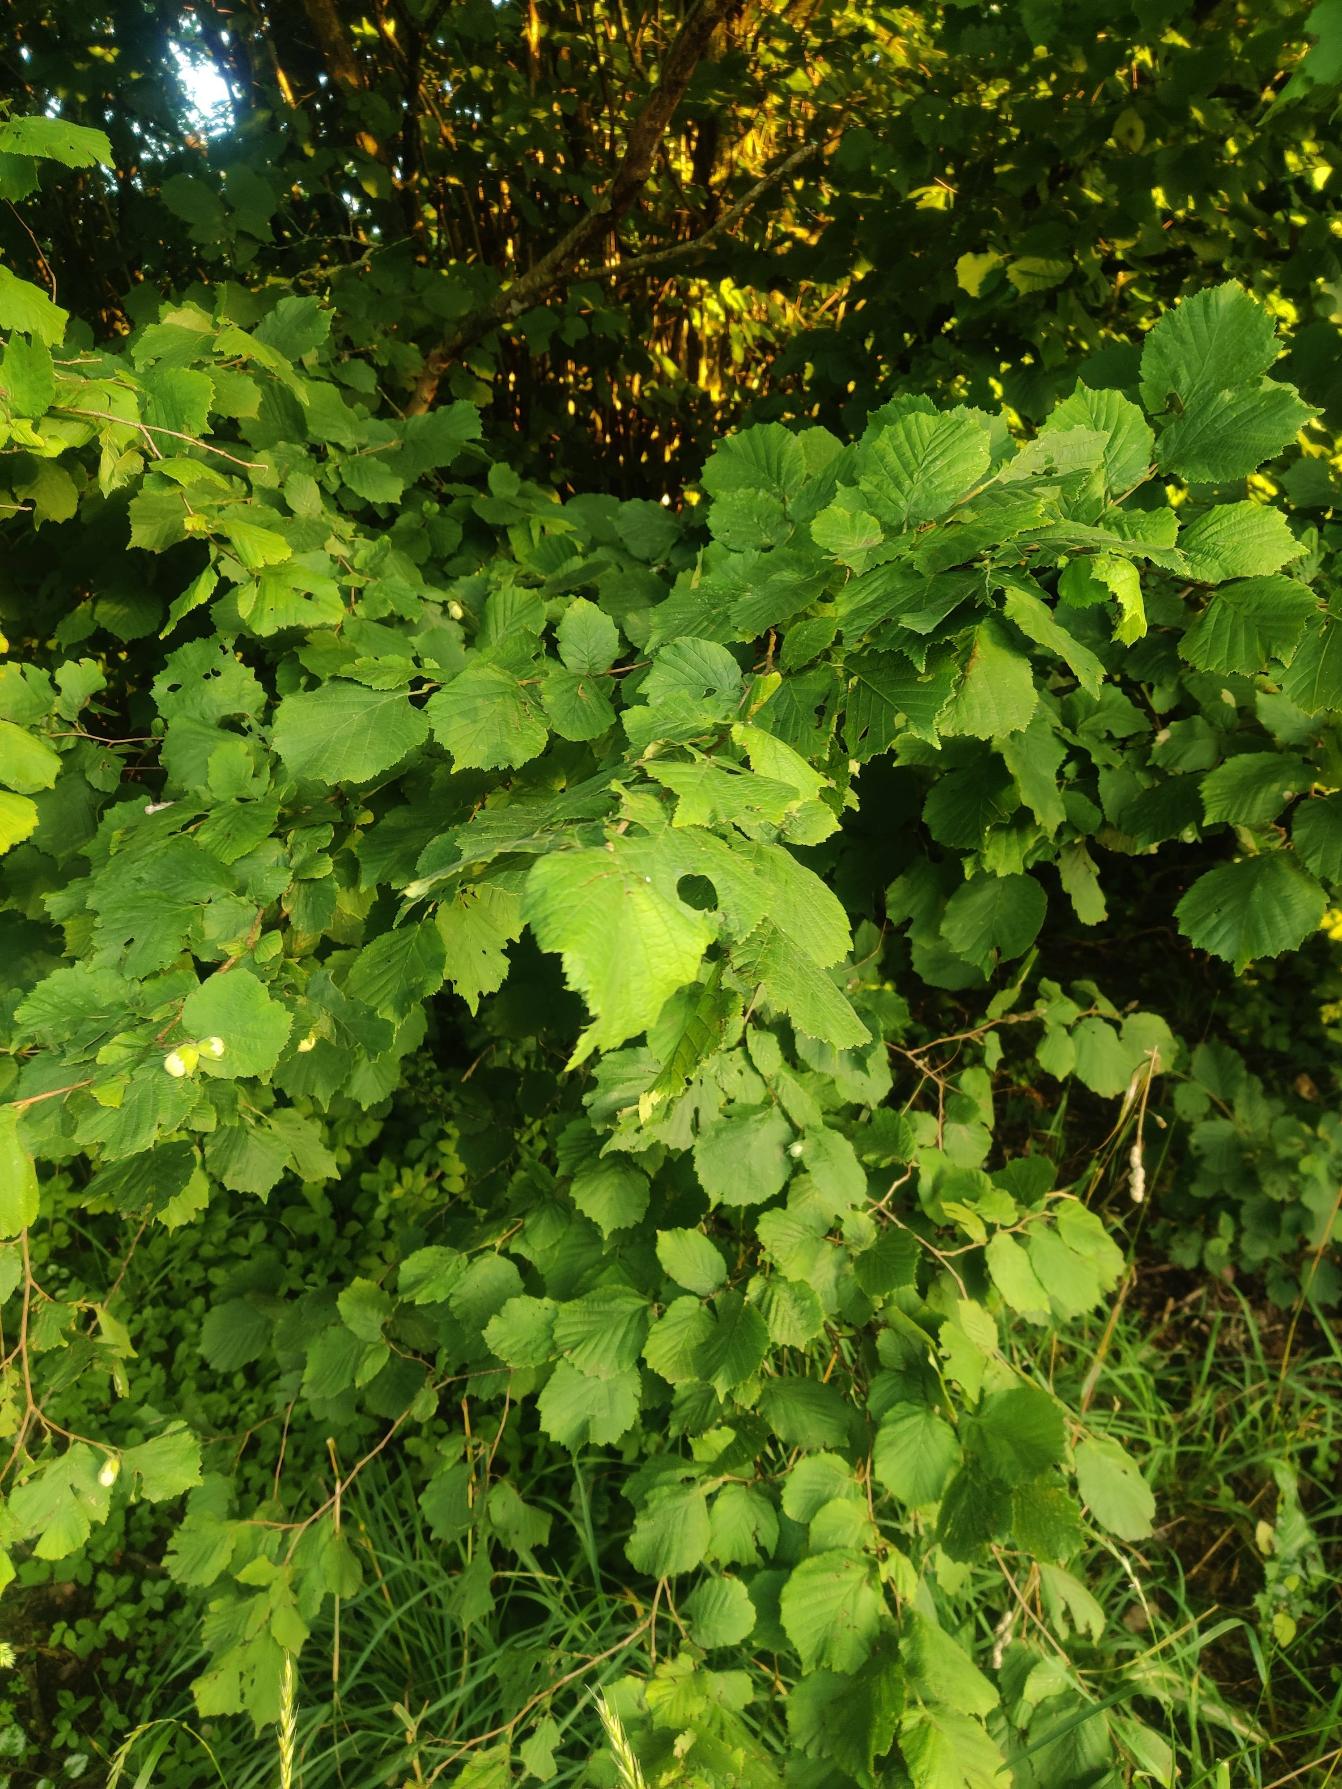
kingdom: Plantae
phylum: Tracheophyta
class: Magnoliopsida
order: Fagales
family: Betulaceae
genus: Corylus
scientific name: Corylus avellana
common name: Hassel
